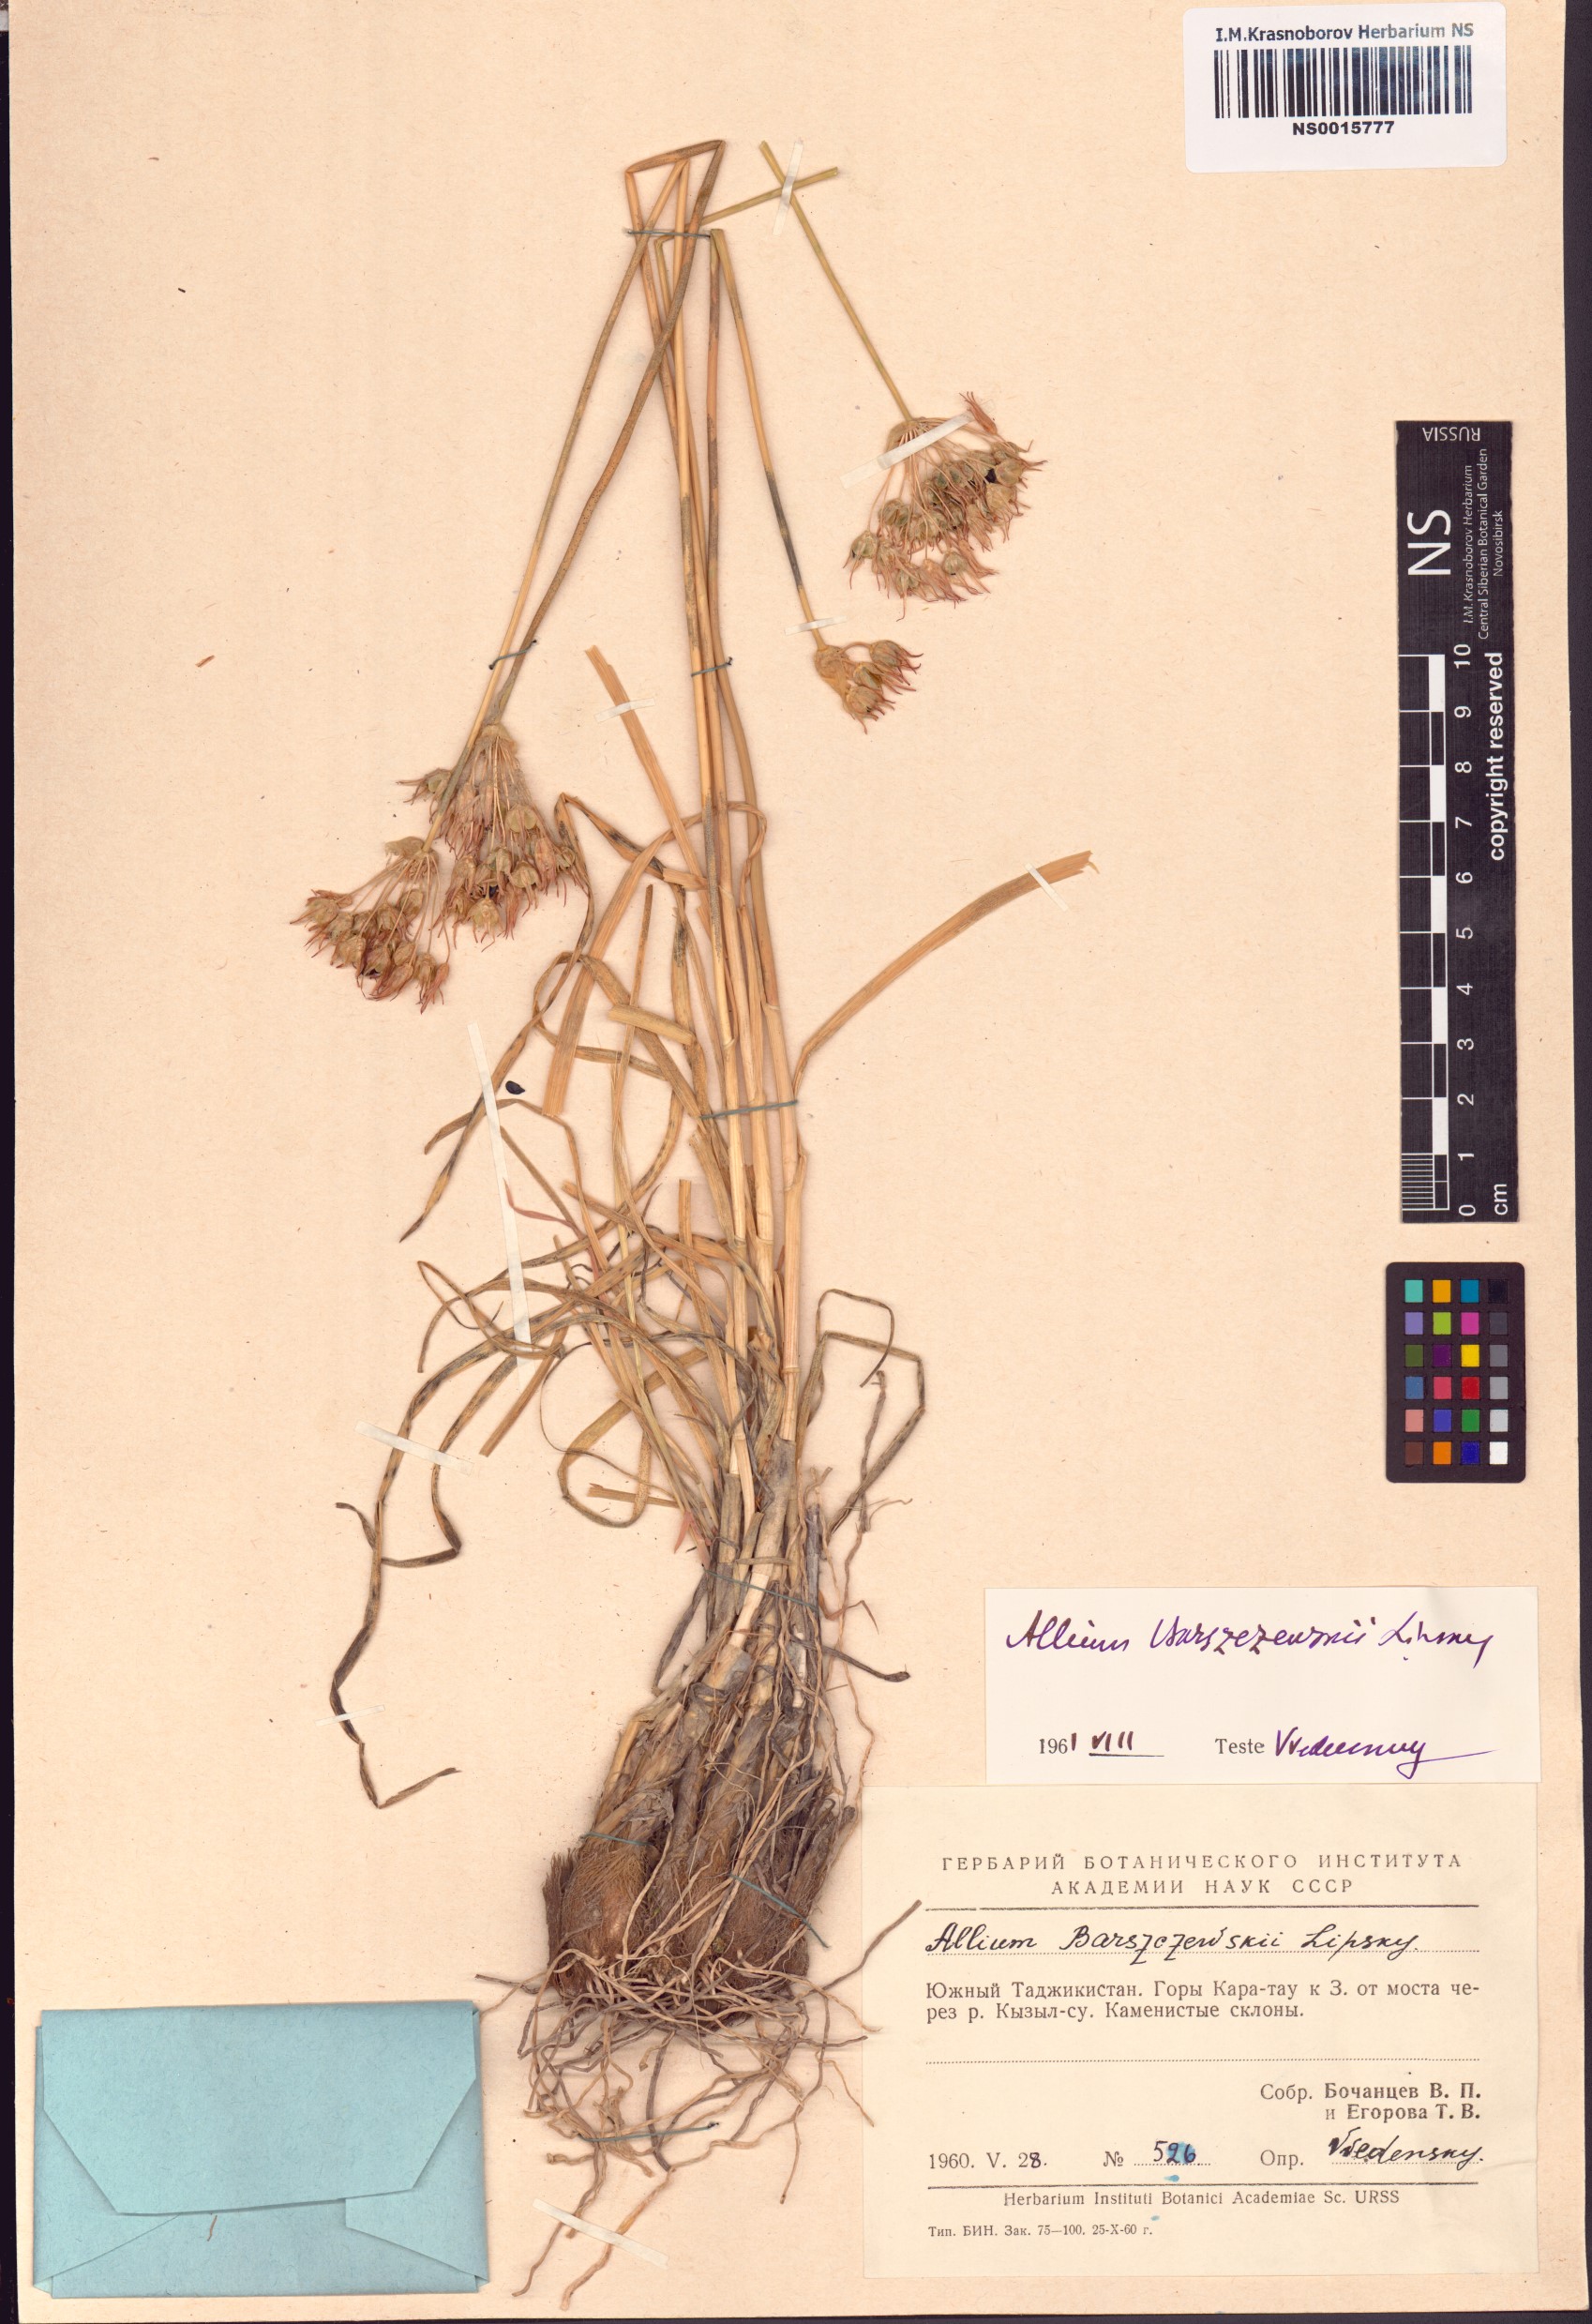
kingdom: Plantae
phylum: Tracheophyta
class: Liliopsida
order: Asparagales
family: Amaryllidaceae
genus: Allium
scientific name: Allium barsczewskii
